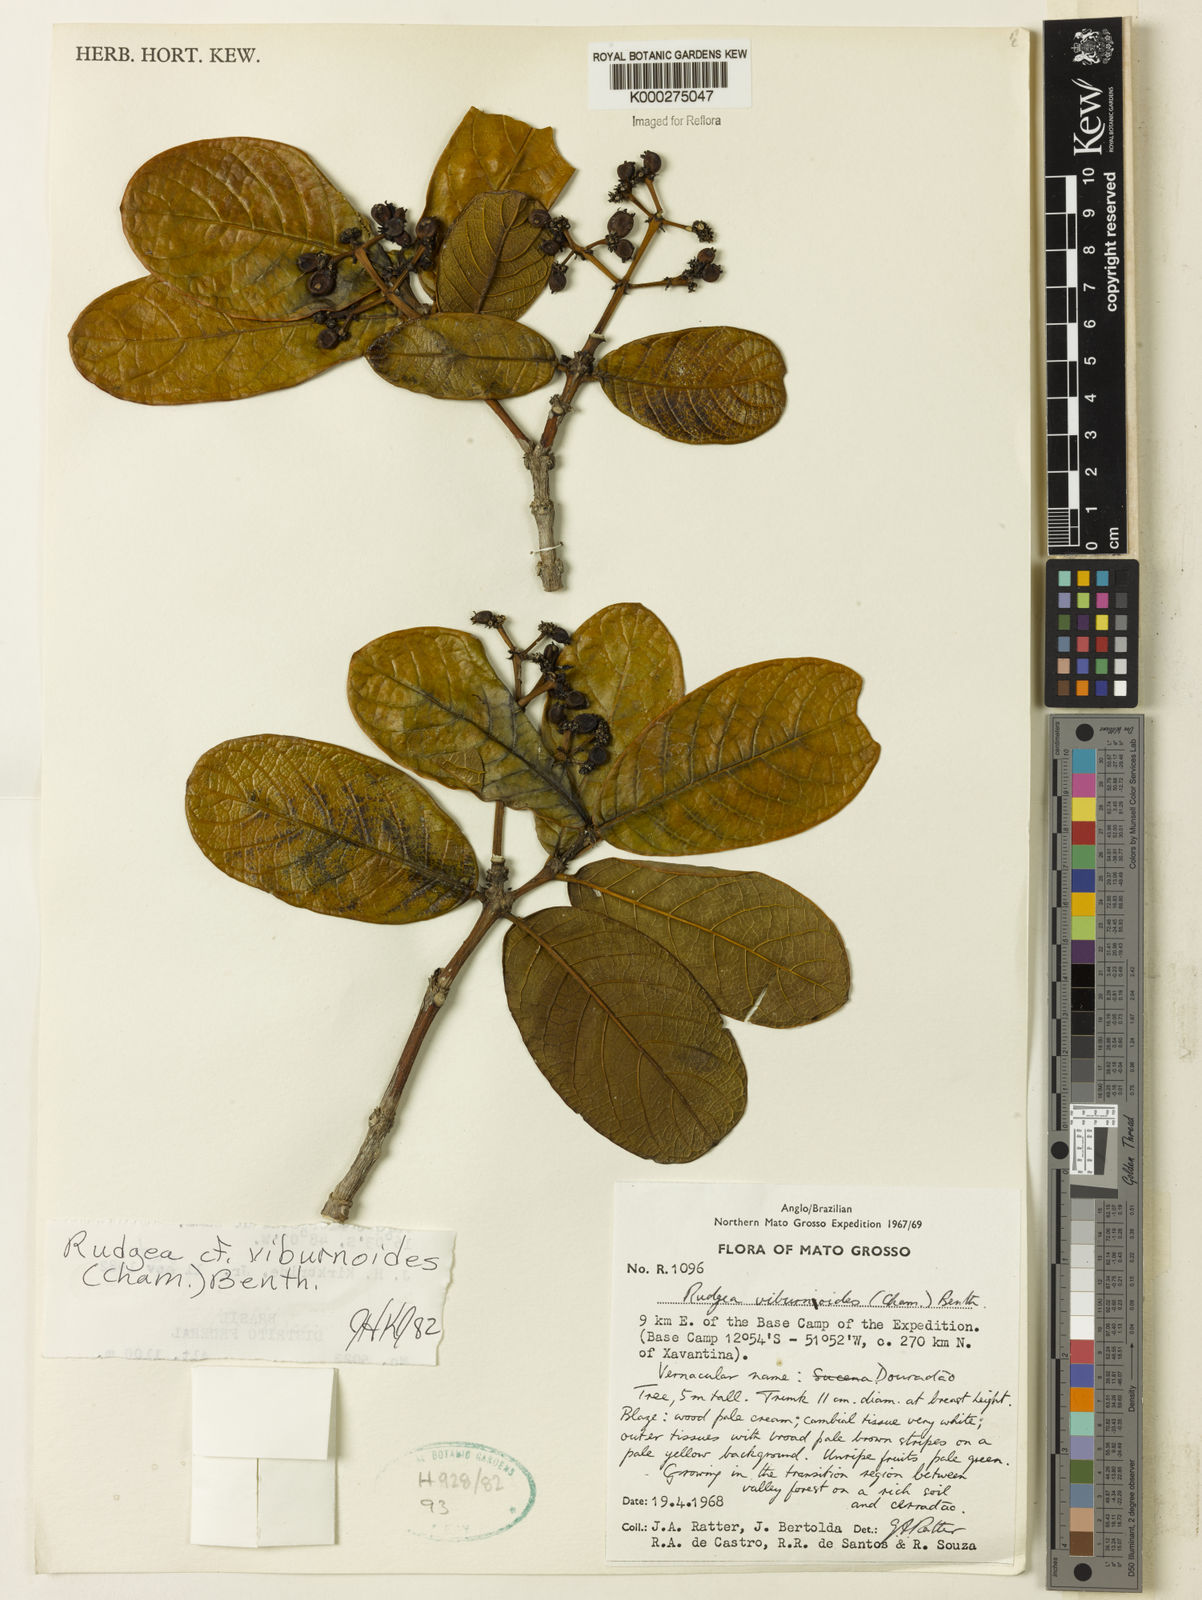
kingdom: Plantae
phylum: Tracheophyta
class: Magnoliopsida
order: Gentianales
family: Rubiaceae
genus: Rudgea
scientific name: Rudgea viburnoides
